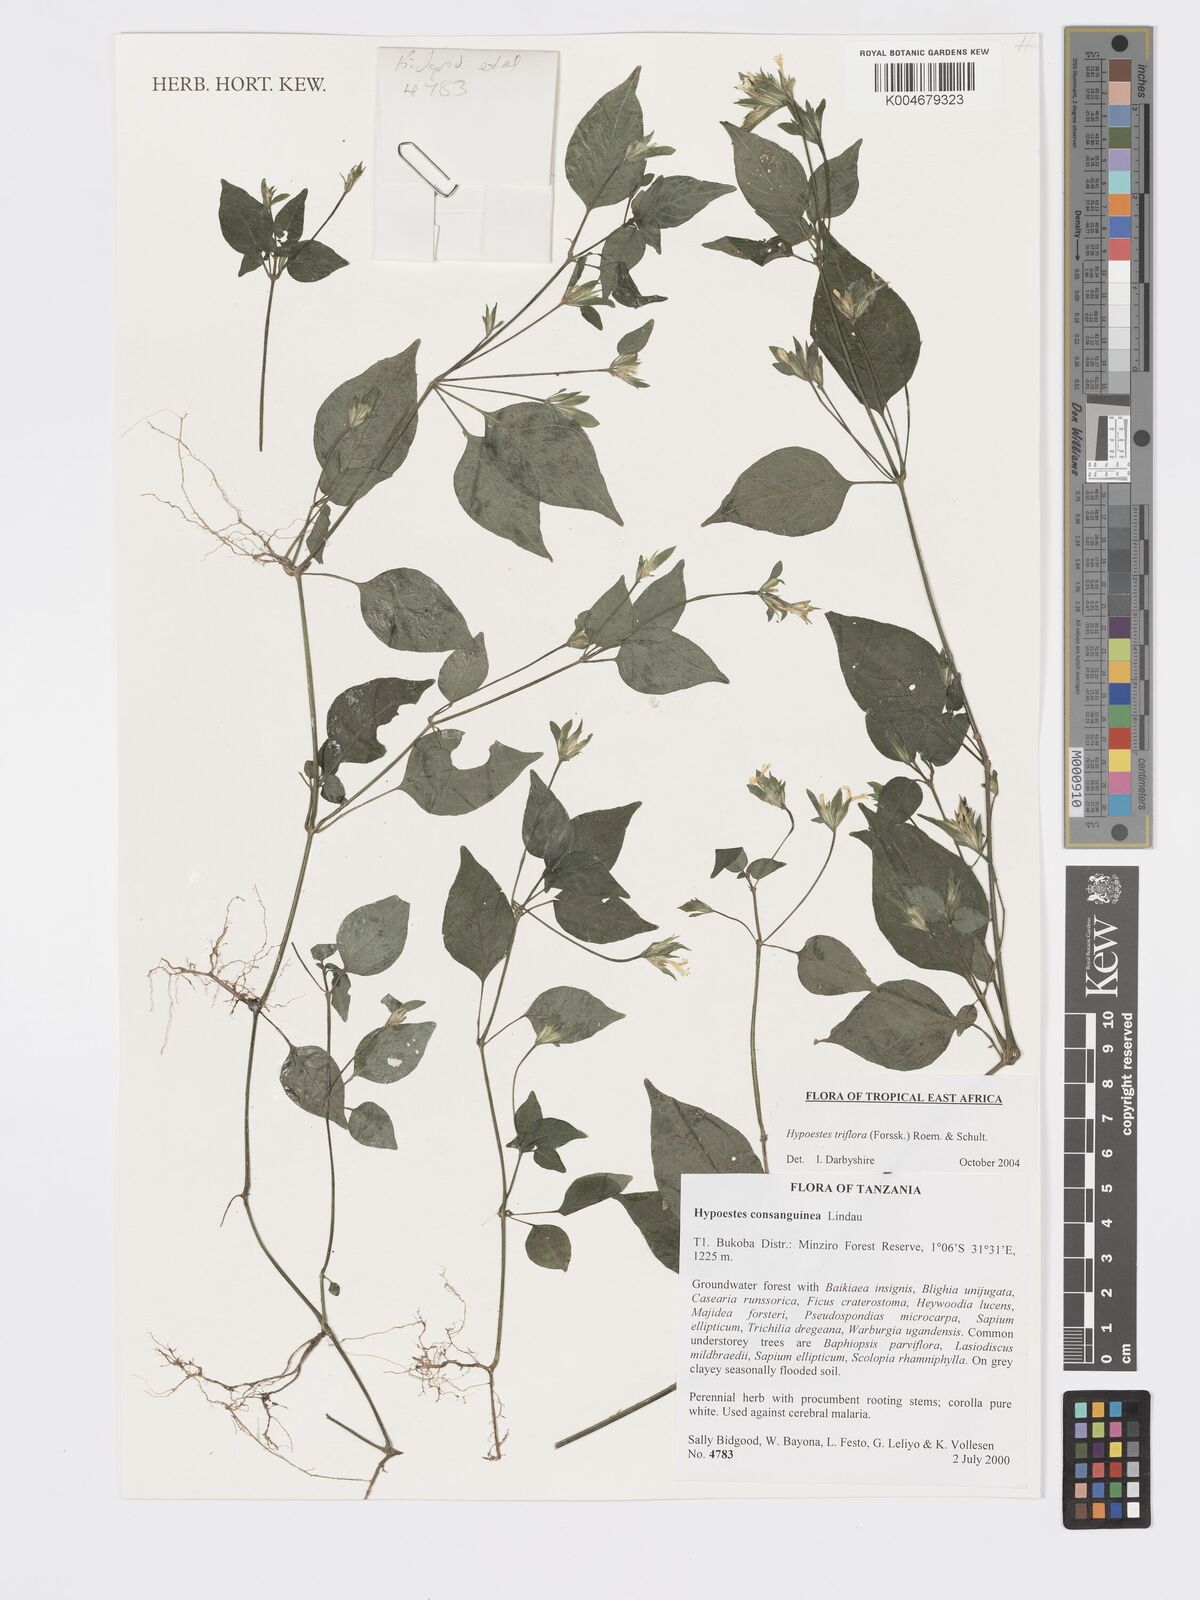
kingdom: Plantae
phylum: Tracheophyta
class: Magnoliopsida
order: Lamiales
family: Acanthaceae
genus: Hypoestes
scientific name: Hypoestes triflora
